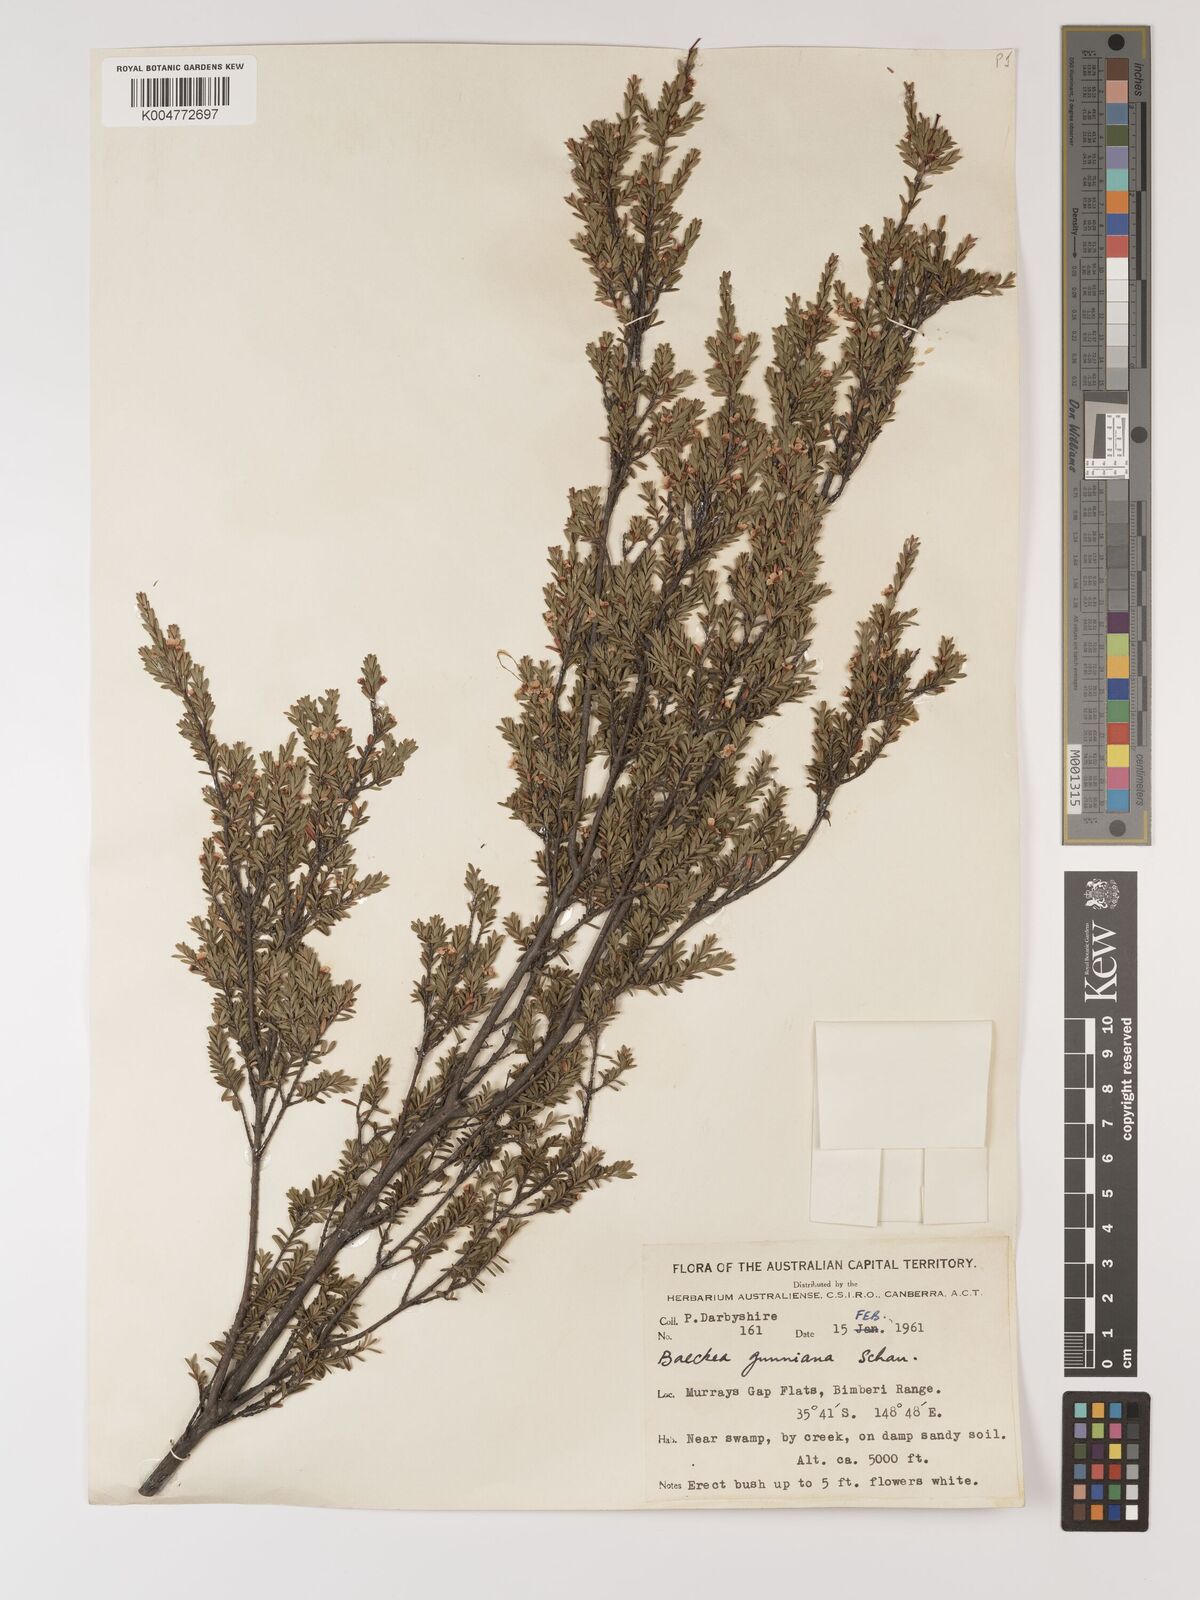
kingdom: Plantae
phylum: Tracheophyta
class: Magnoliopsida
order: Myrtales
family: Myrtaceae
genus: Baeckea
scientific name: Baeckea gunniana
